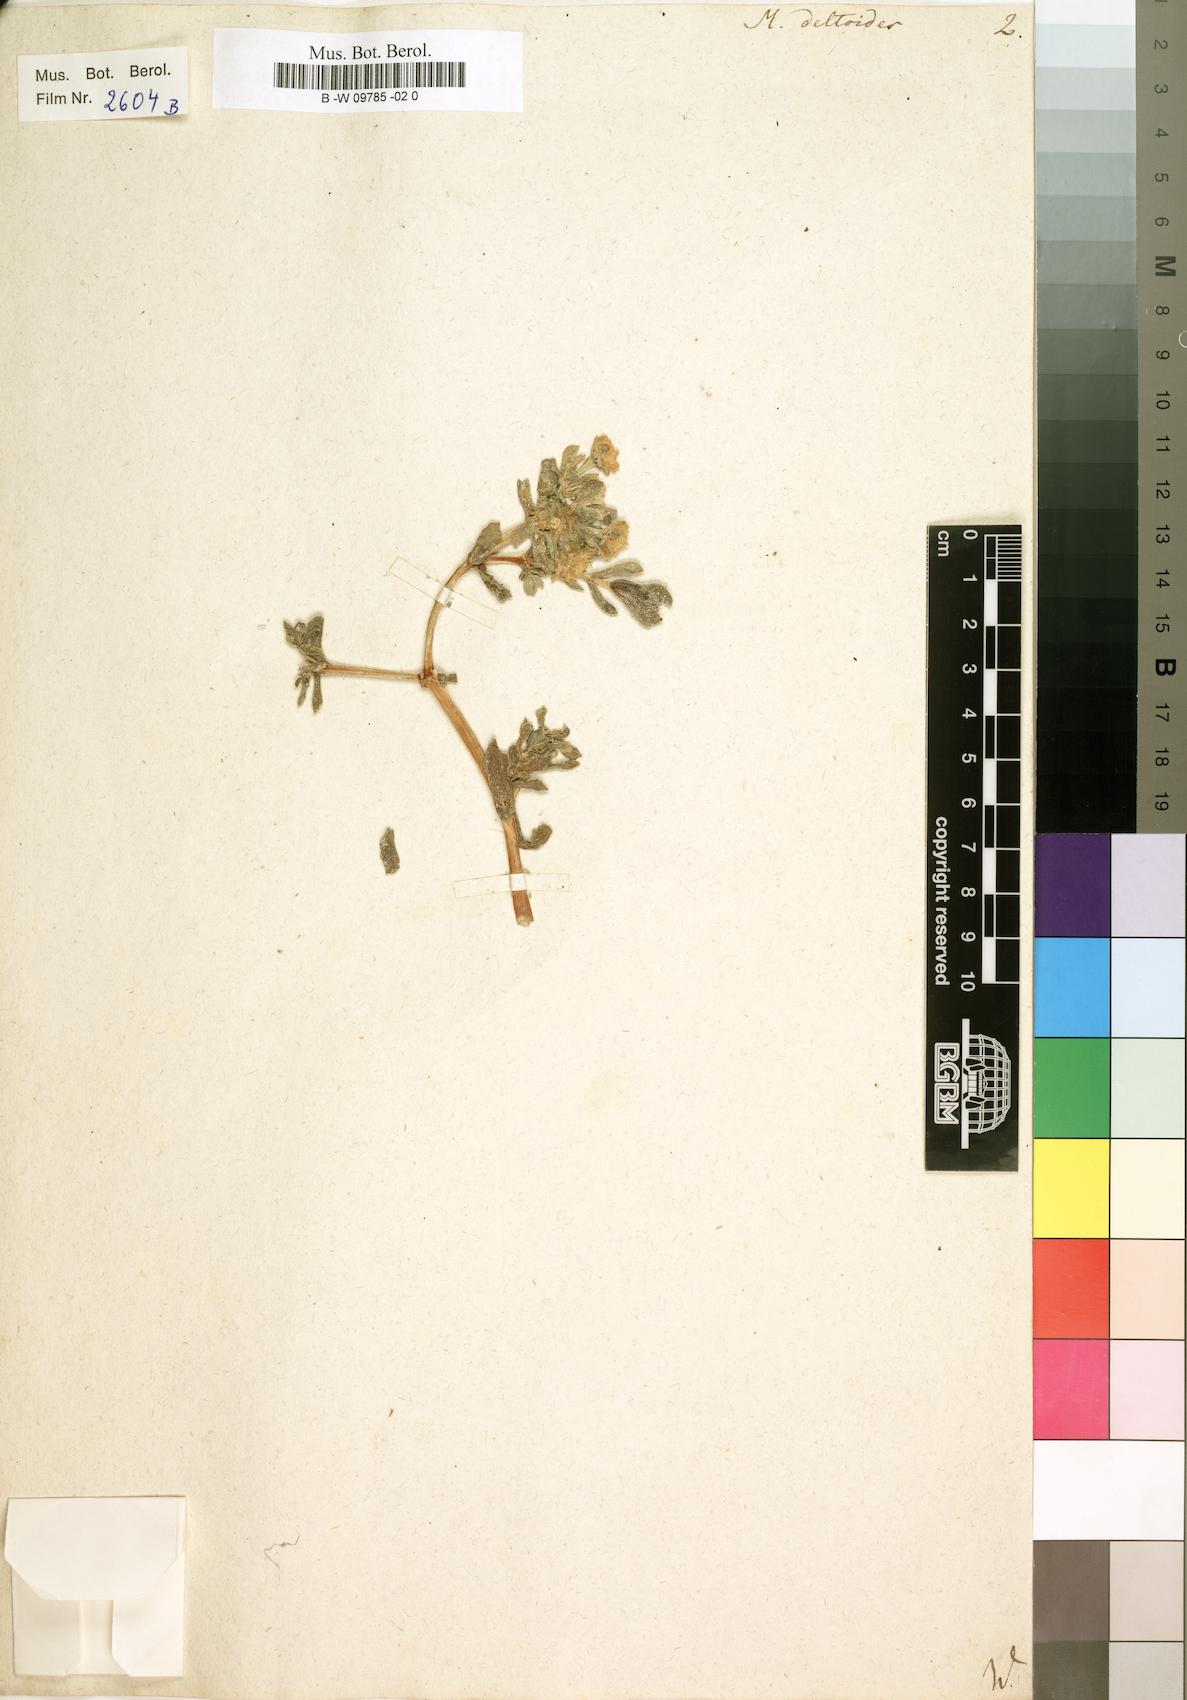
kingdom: Plantae
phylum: Tracheophyta
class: Magnoliopsida
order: Caryophyllales
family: Aizoaceae
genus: Oscularia
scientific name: Oscularia deltoides
